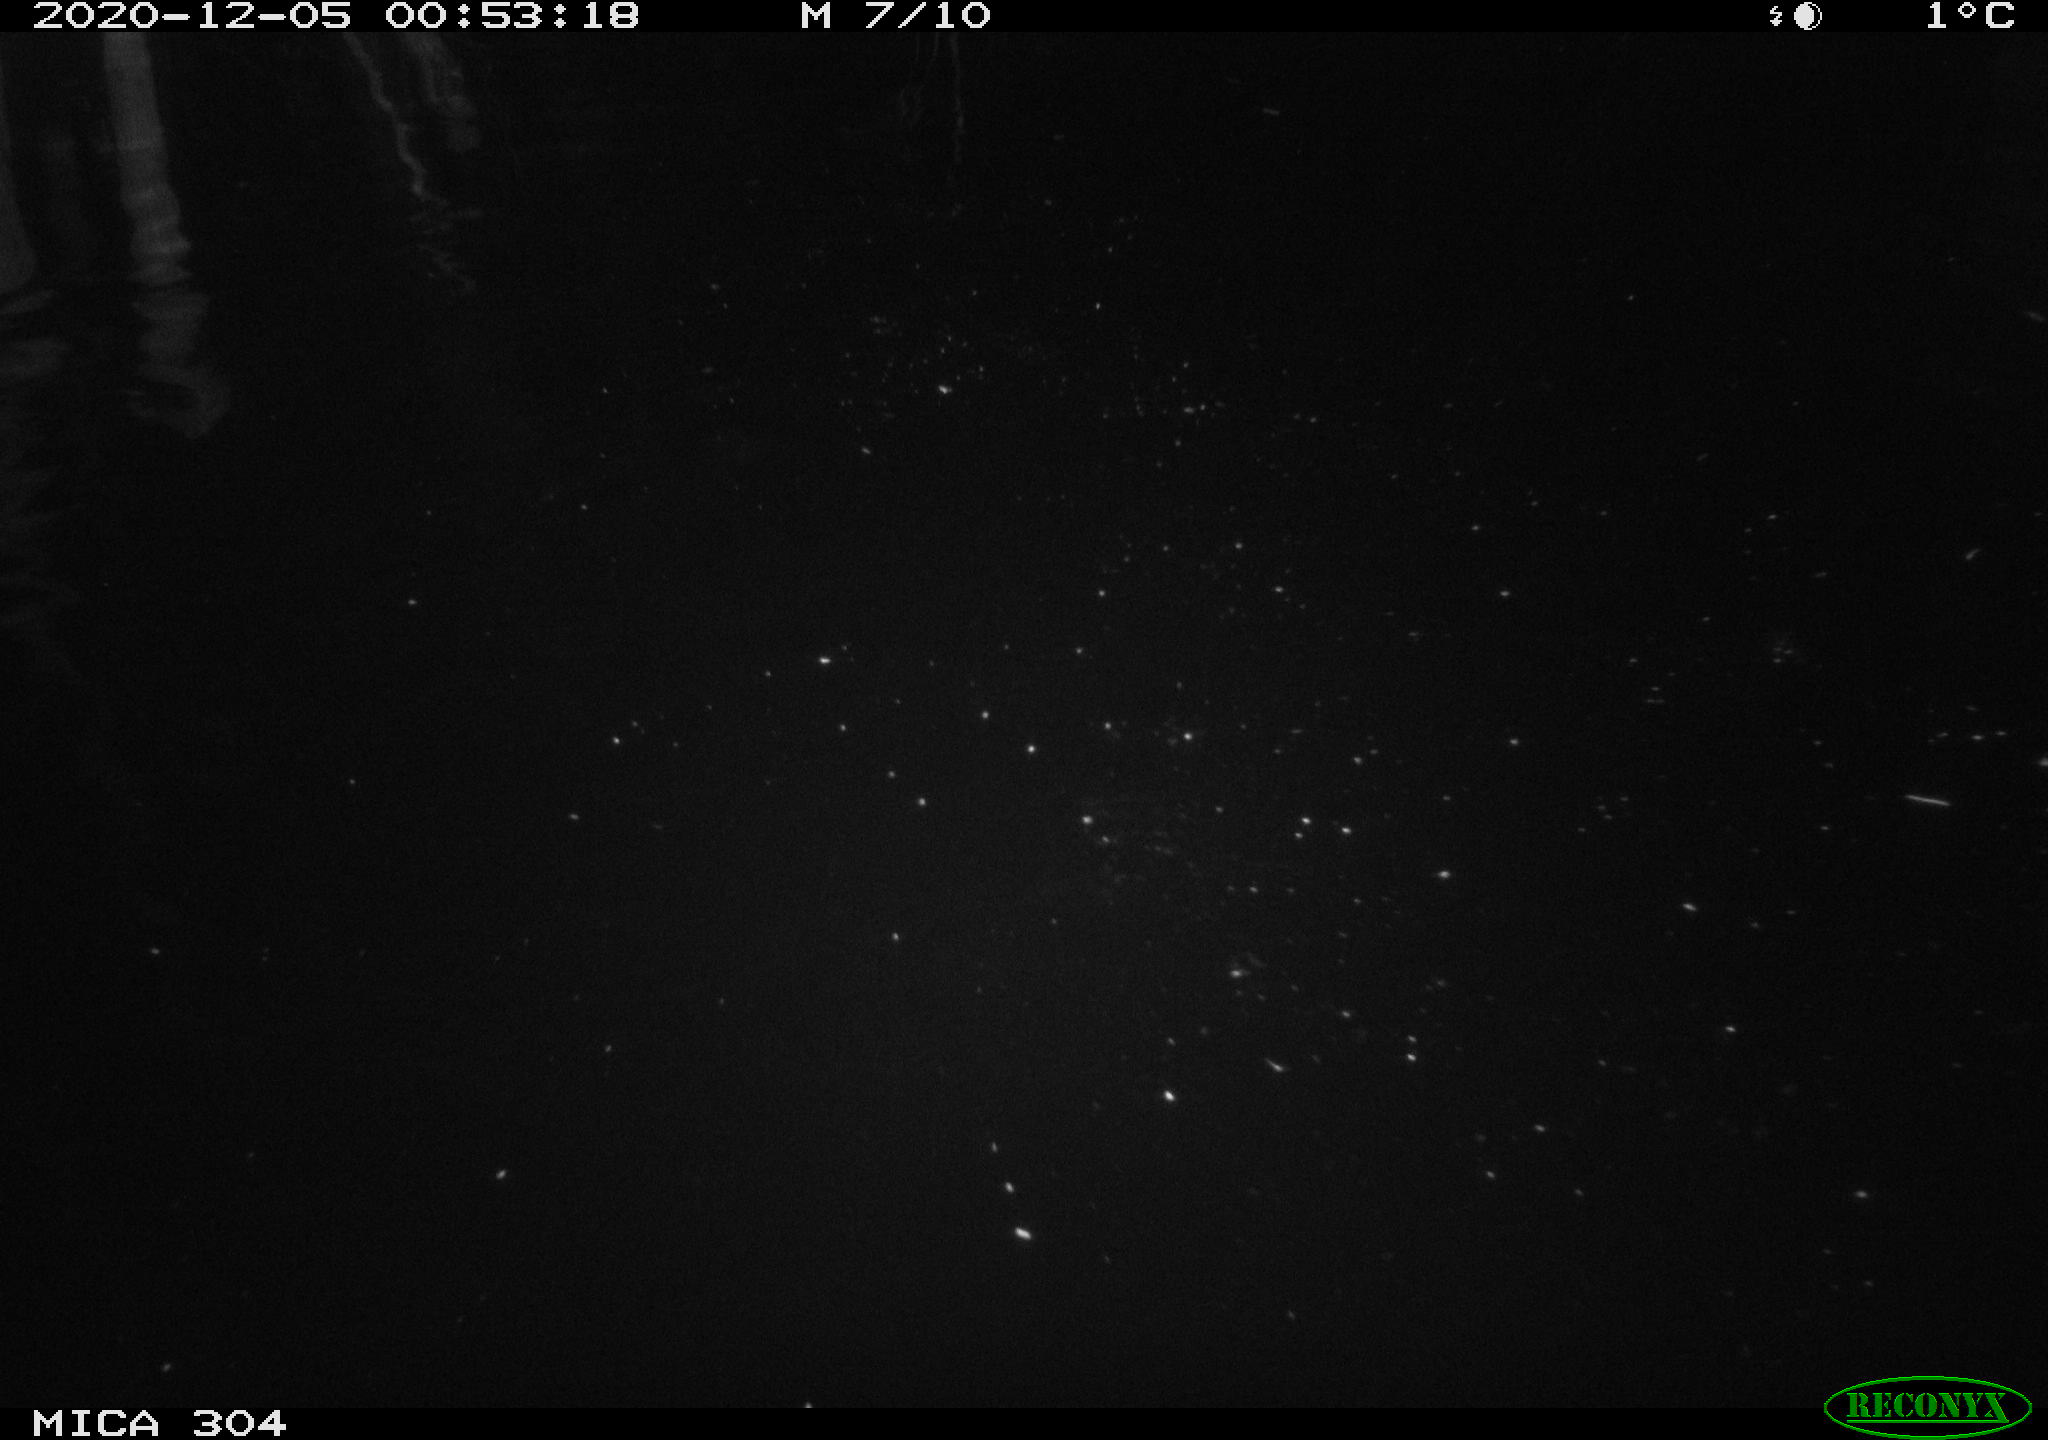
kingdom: Animalia
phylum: Chordata
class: Mammalia
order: Rodentia
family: Muridae
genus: Rattus
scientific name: Rattus norvegicus
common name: Brown rat
